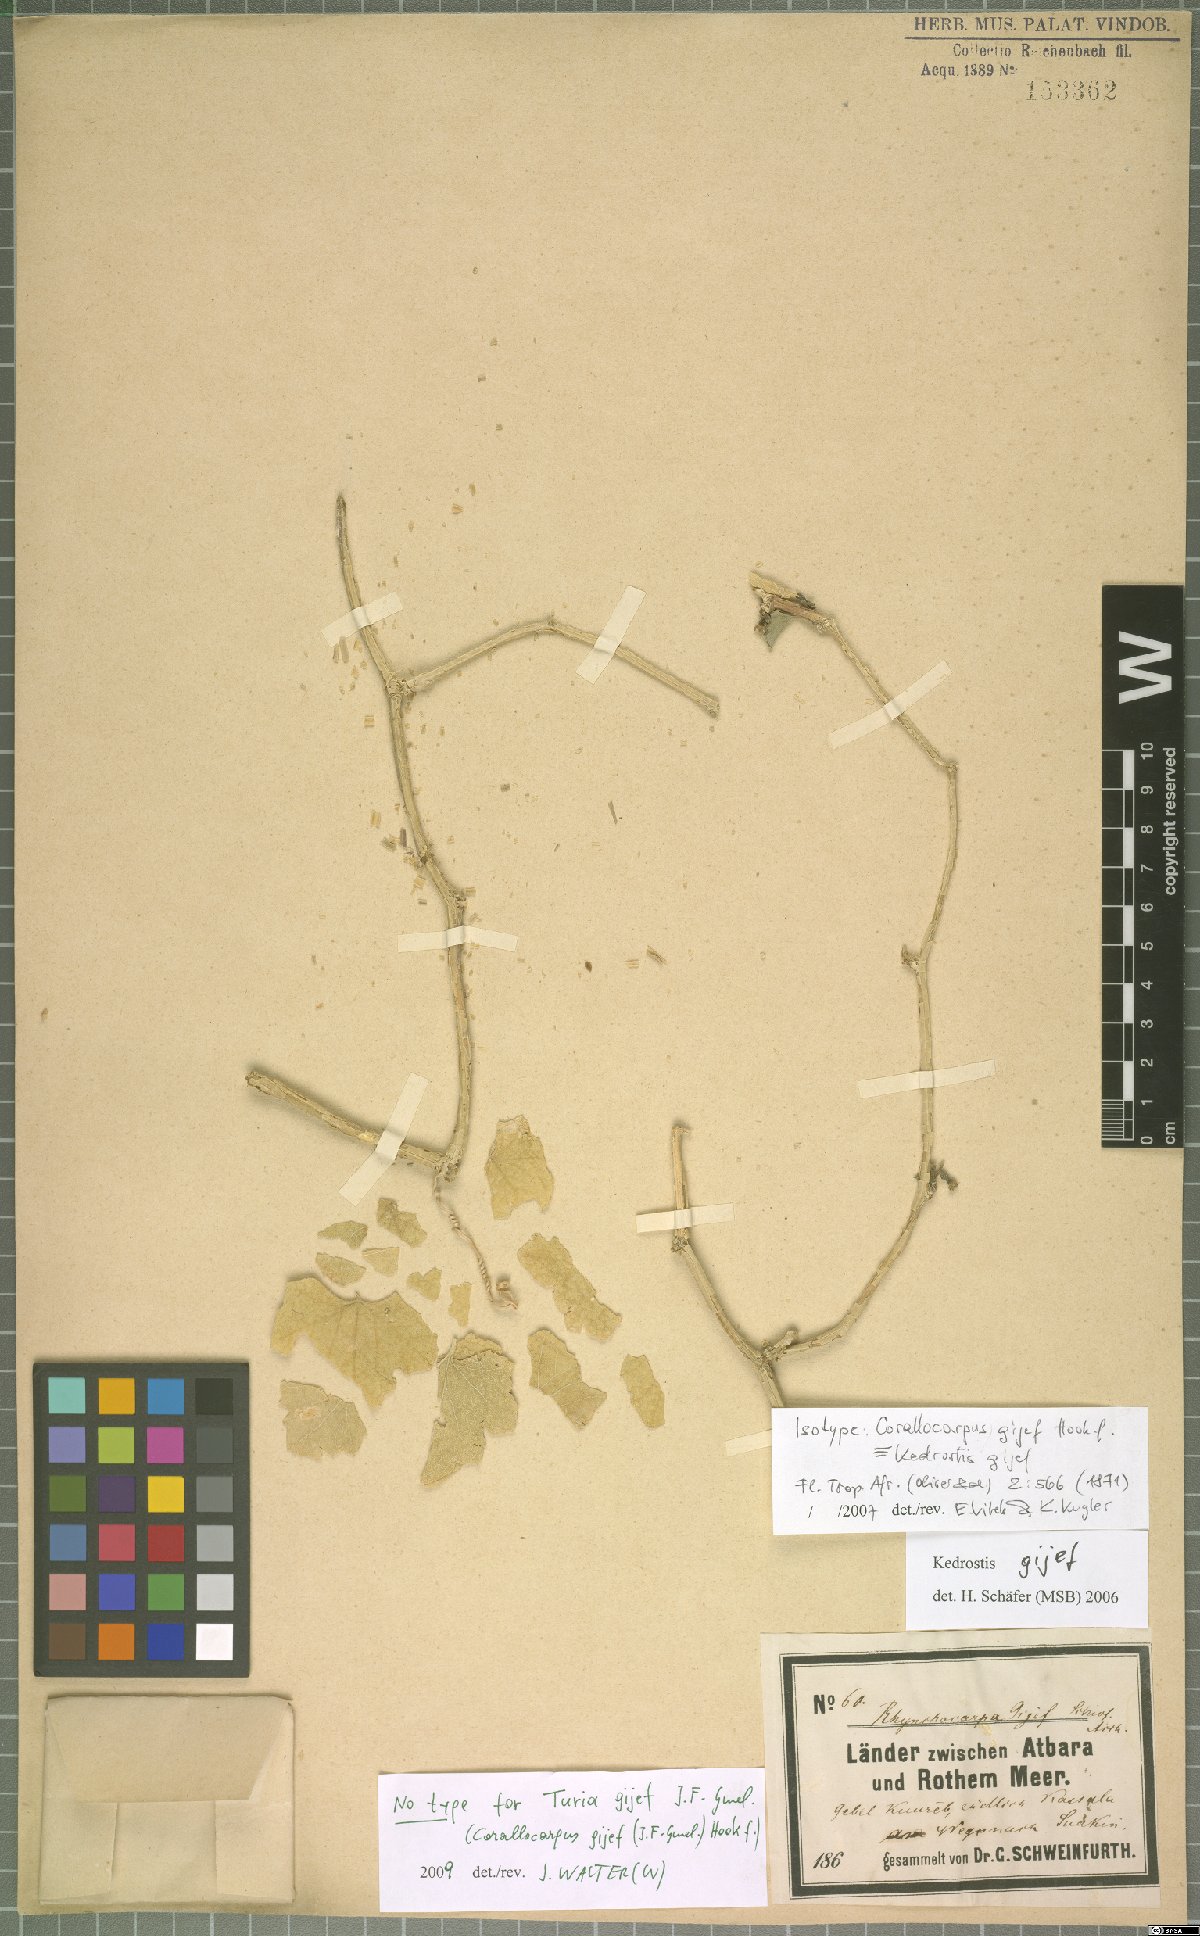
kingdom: Plantae
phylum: Tracheophyta
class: Magnoliopsida
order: Cucurbitales
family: Cucurbitaceae
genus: Kedrostis
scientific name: Kedrostis gijef
